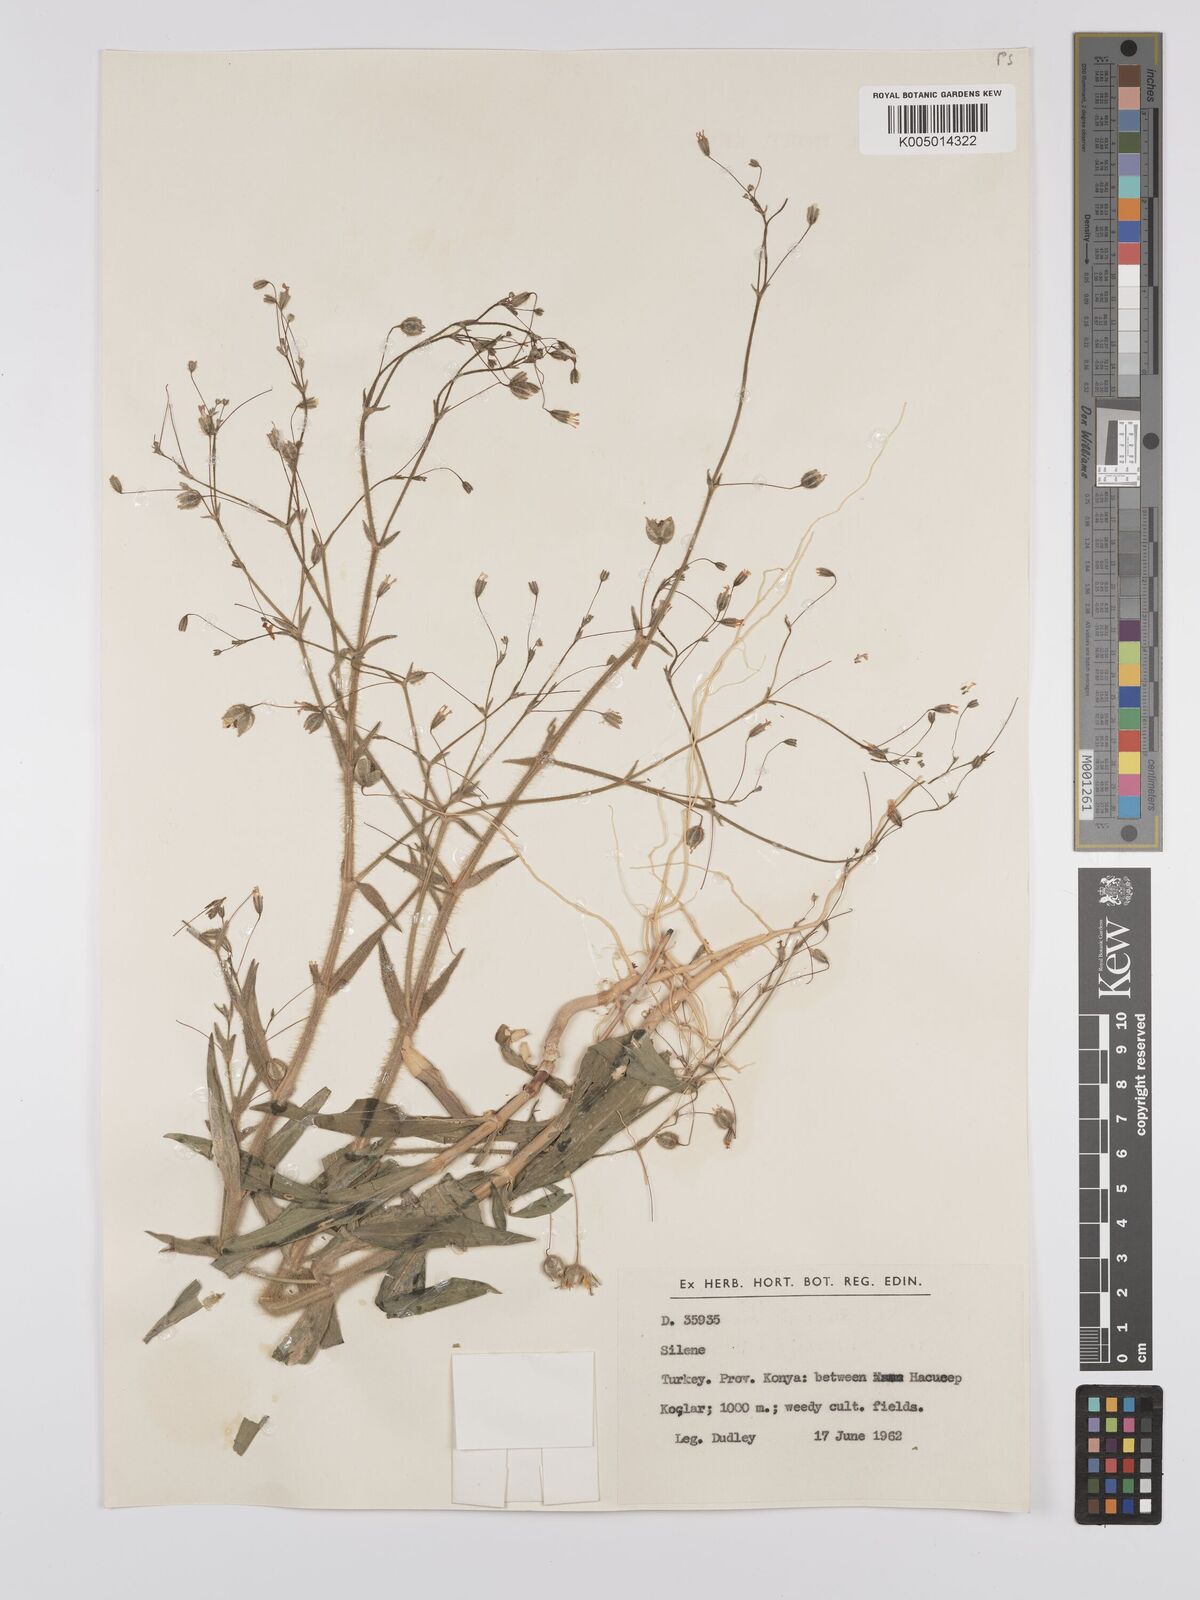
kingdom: Plantae
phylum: Tracheophyta
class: Magnoliopsida
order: Caryophyllales
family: Caryophyllaceae
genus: Silene
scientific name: Silene
